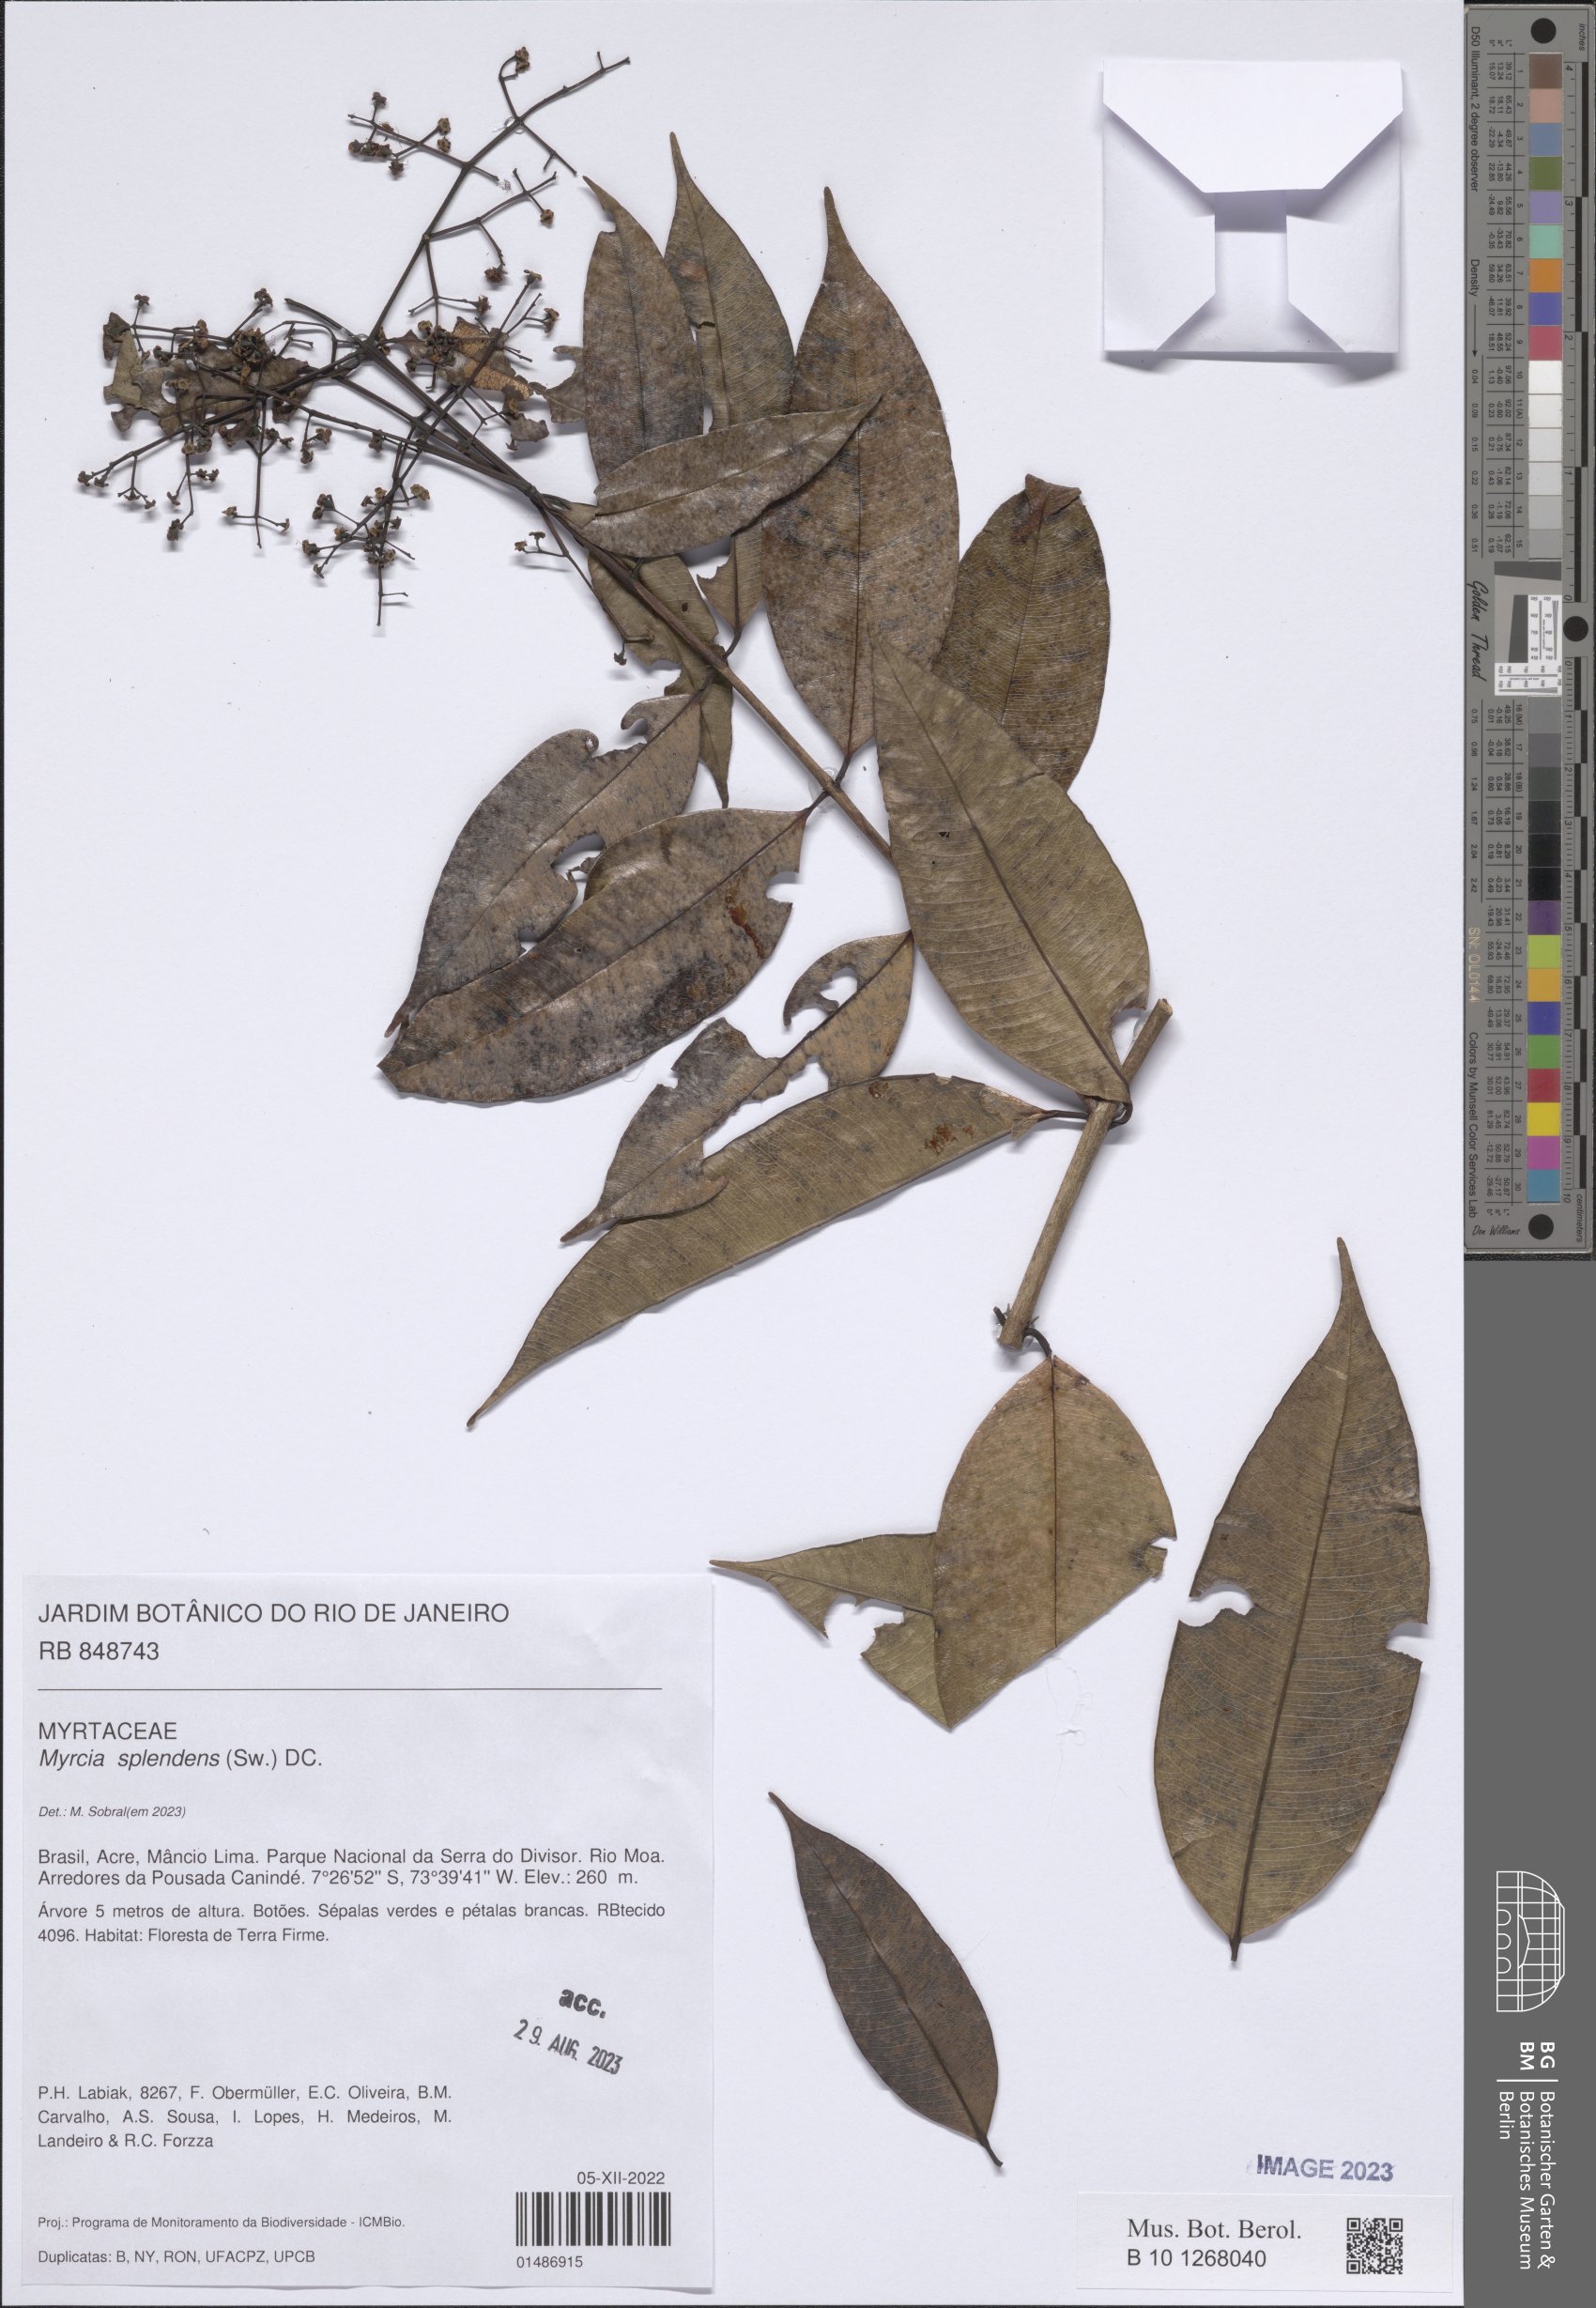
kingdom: Plantae
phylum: Tracheophyta
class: Magnoliopsida
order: Myrtales
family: Myrtaceae
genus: Myrcia
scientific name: Myrcia splendens
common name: Surinam cherry
